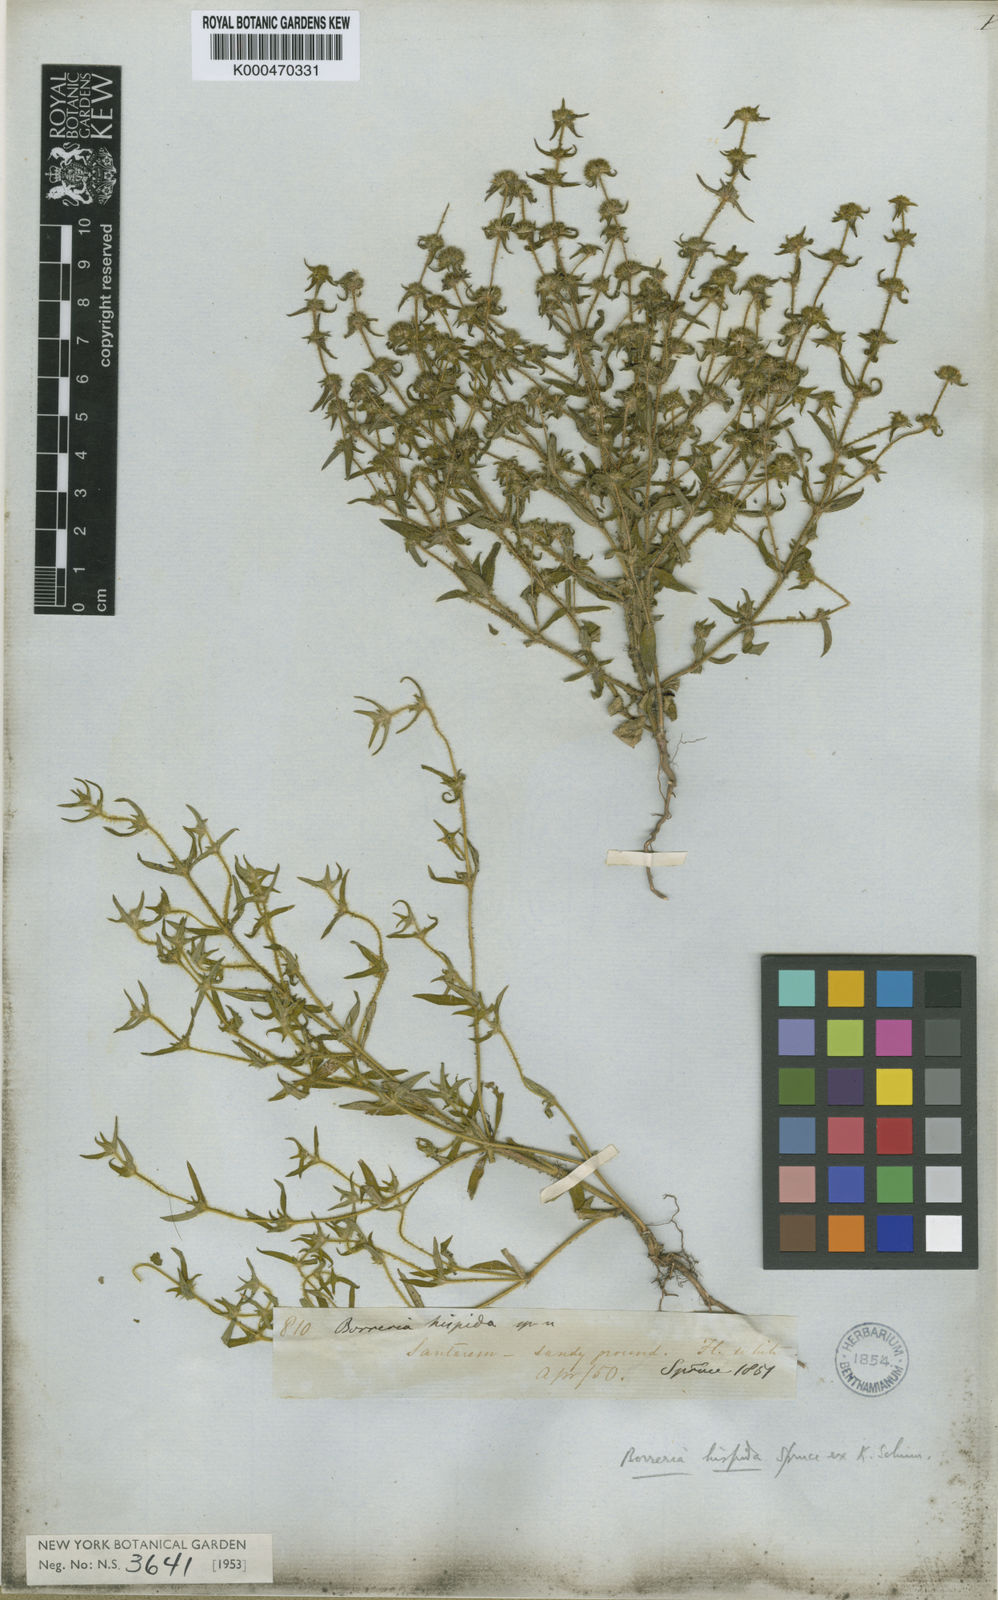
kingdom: Plantae
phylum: Tracheophyta
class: Magnoliopsida
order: Gentianales
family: Rubiaceae
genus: Exallage
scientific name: Exallage auricularia
